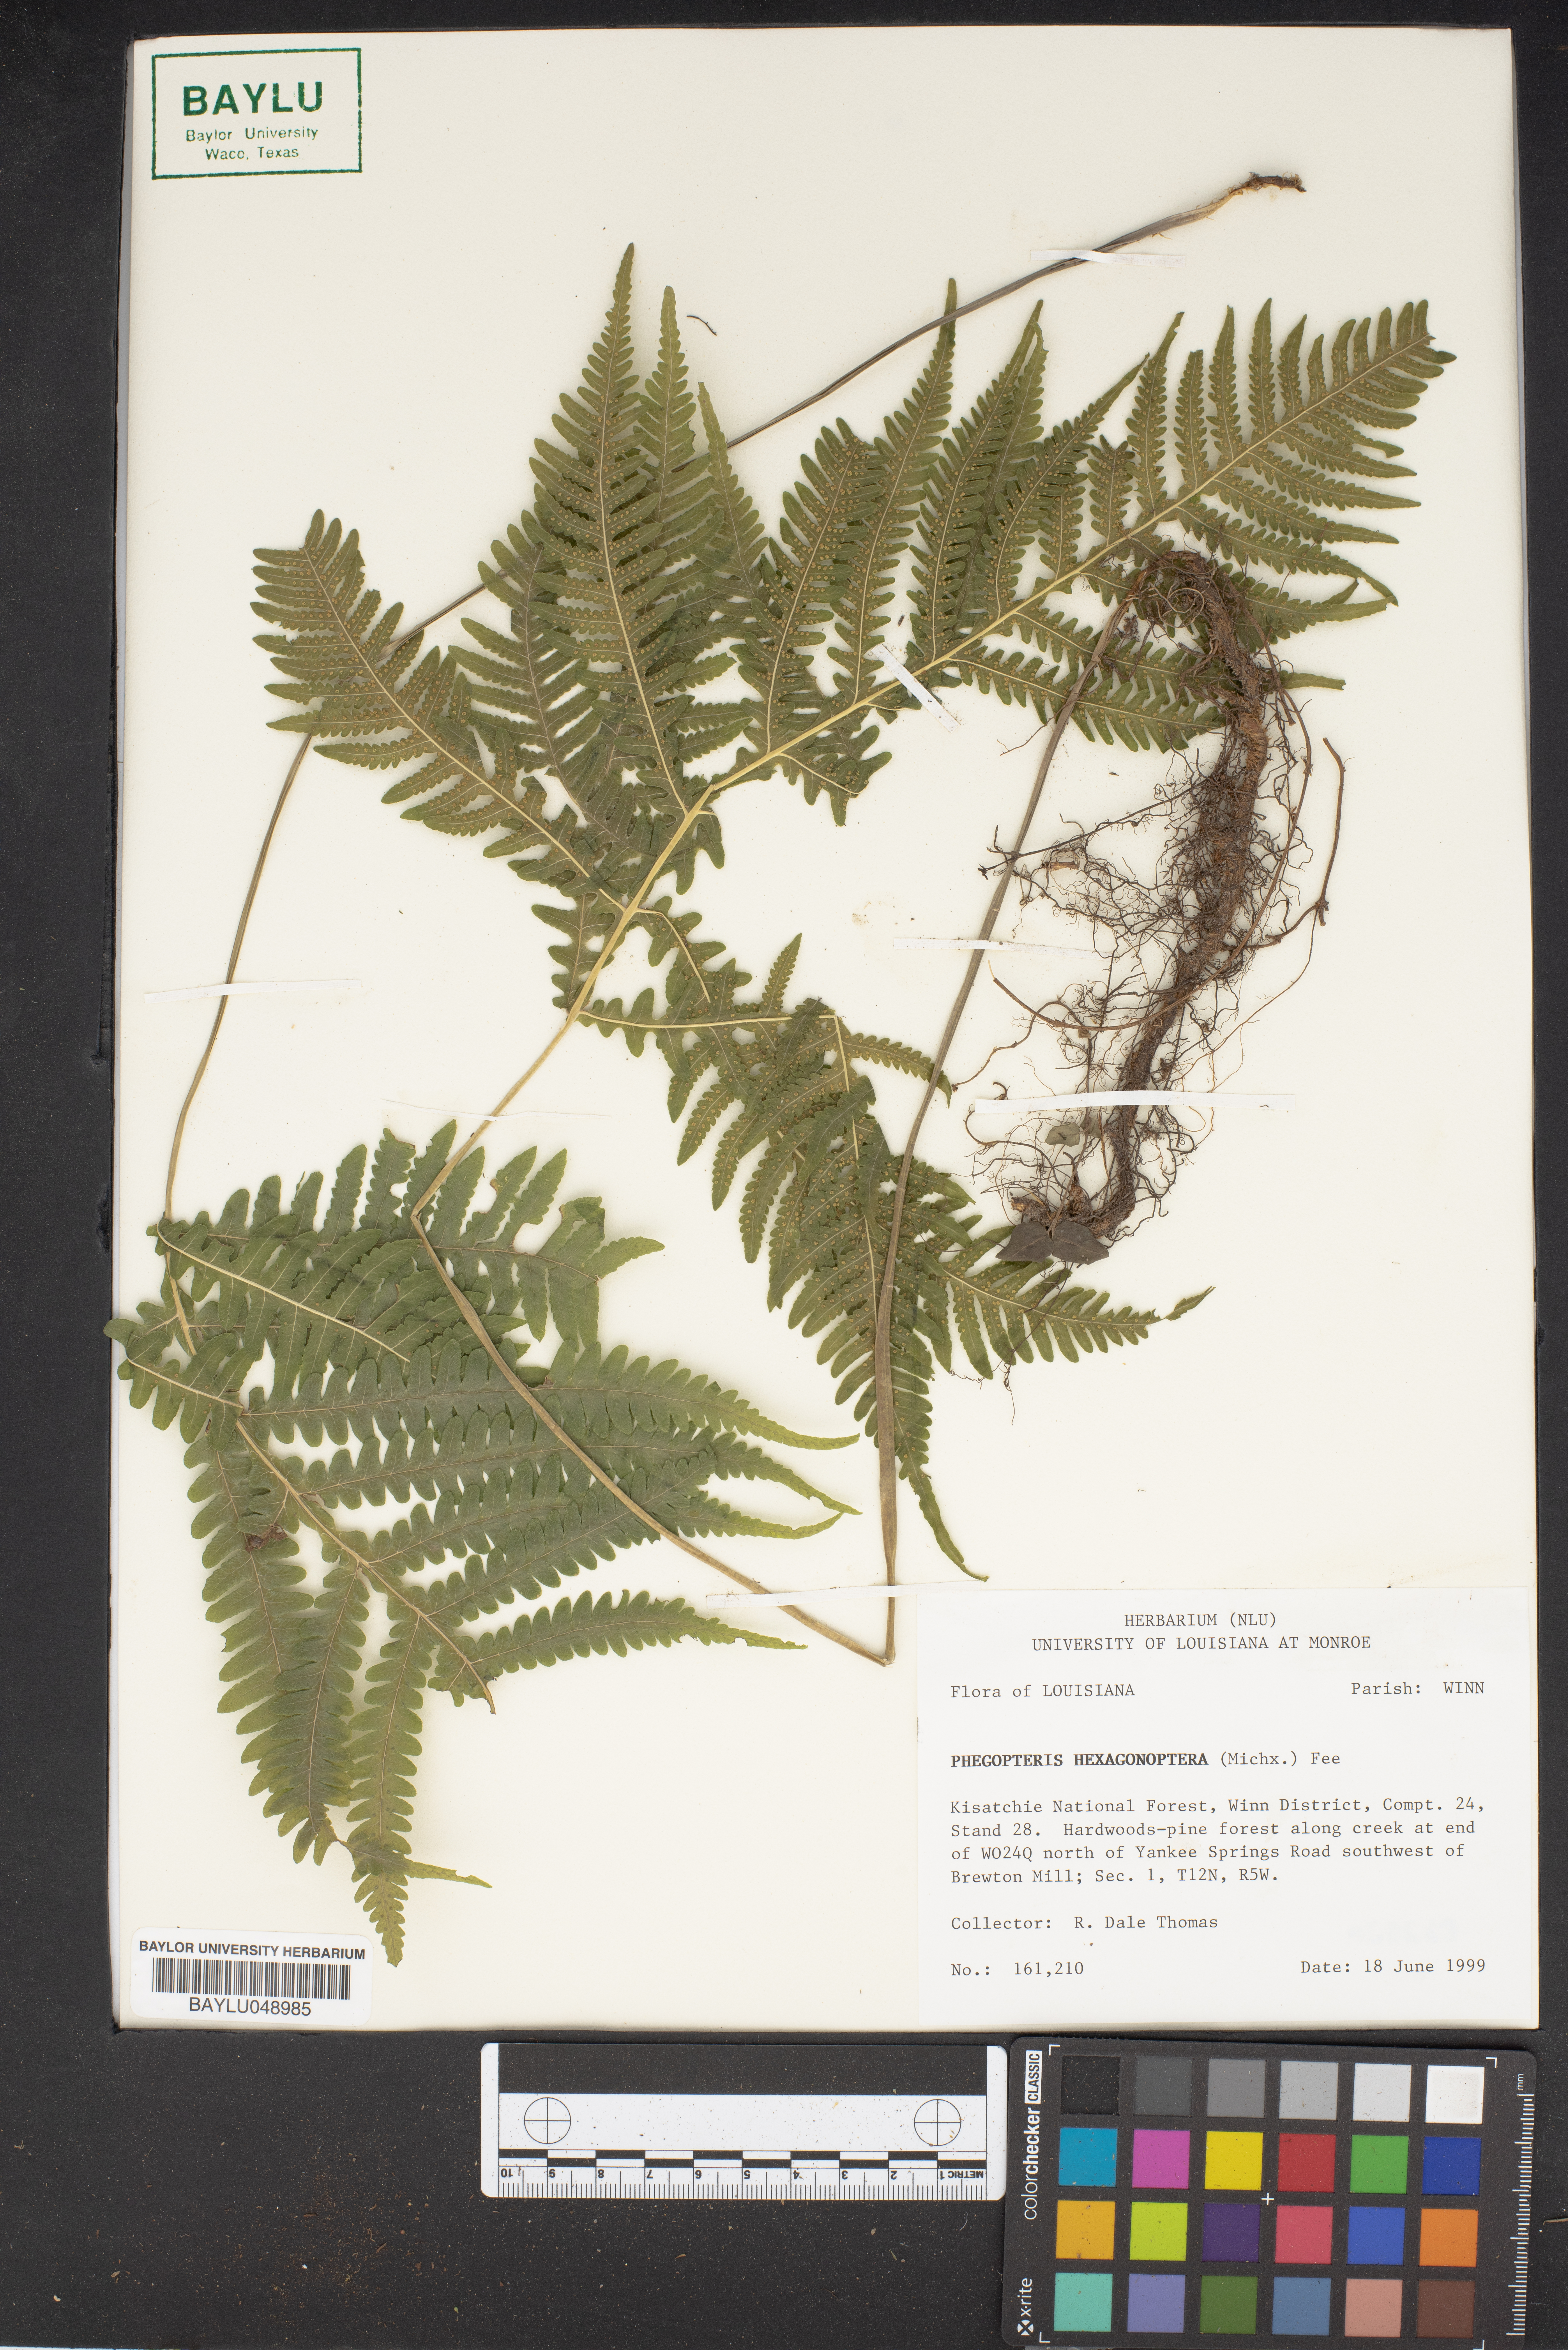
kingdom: Plantae
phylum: Tracheophyta
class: Polypodiopsida
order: Polypodiales
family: Thelypteridaceae
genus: Phegopteris
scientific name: Phegopteris hexagonoptera
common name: Broad beech fern
